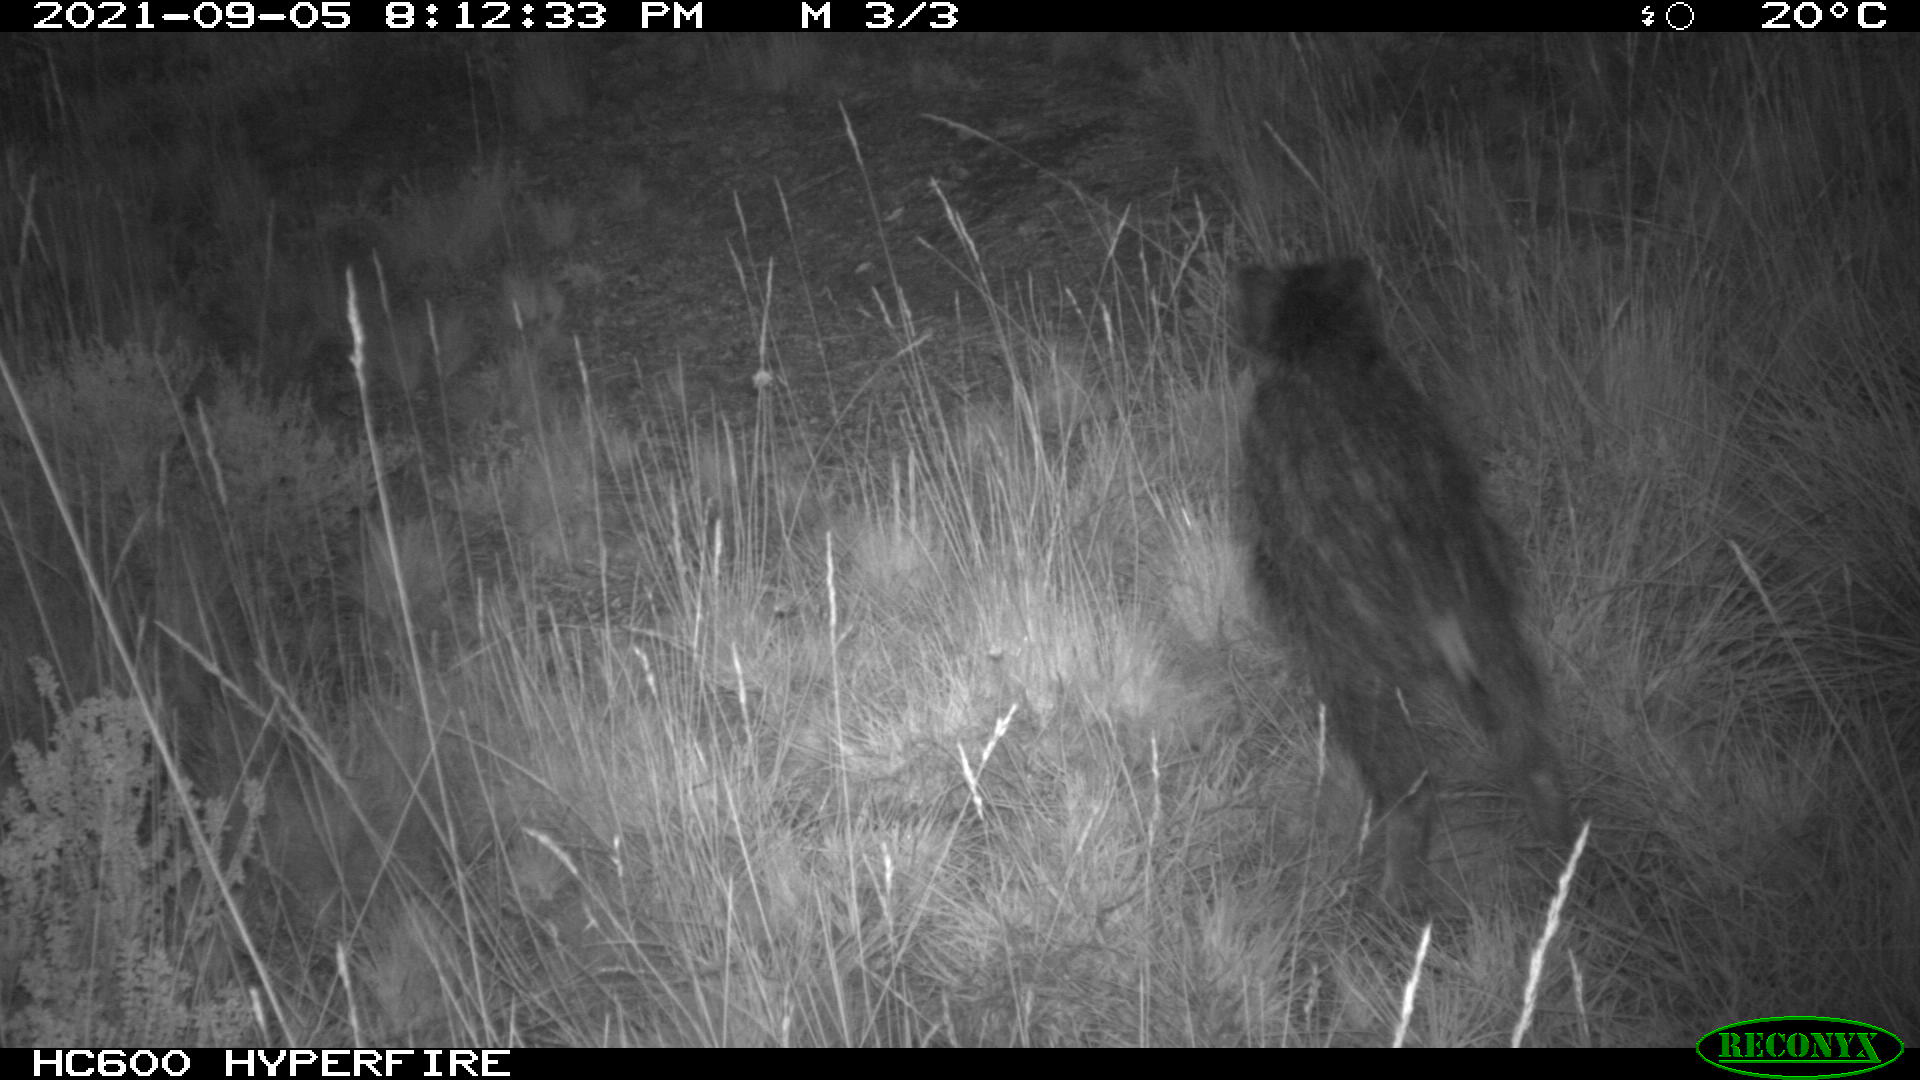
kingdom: Animalia
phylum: Chordata
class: Mammalia
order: Artiodactyla
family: Suidae
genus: Sus
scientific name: Sus scrofa
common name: Wild boar
